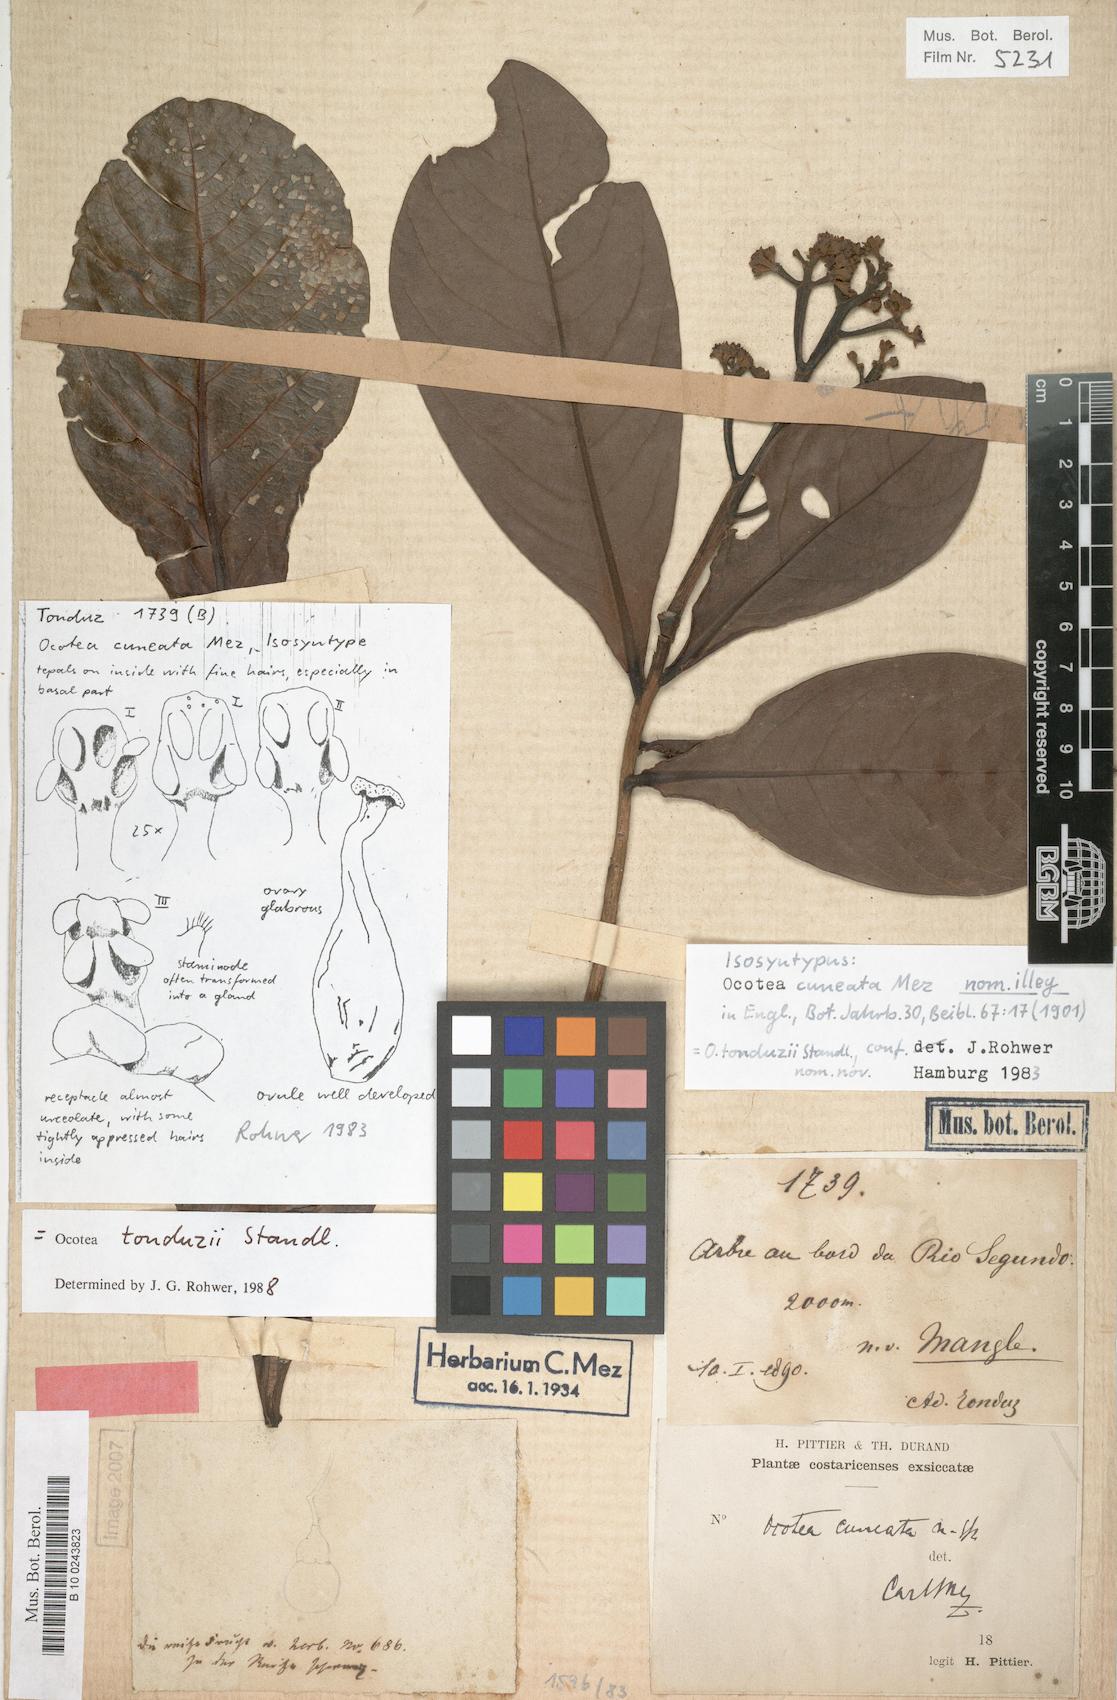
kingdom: Plantae
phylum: Tracheophyta
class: Magnoliopsida
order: Laurales
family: Lauraceae
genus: Ocotea
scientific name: Ocotea tonduzii
